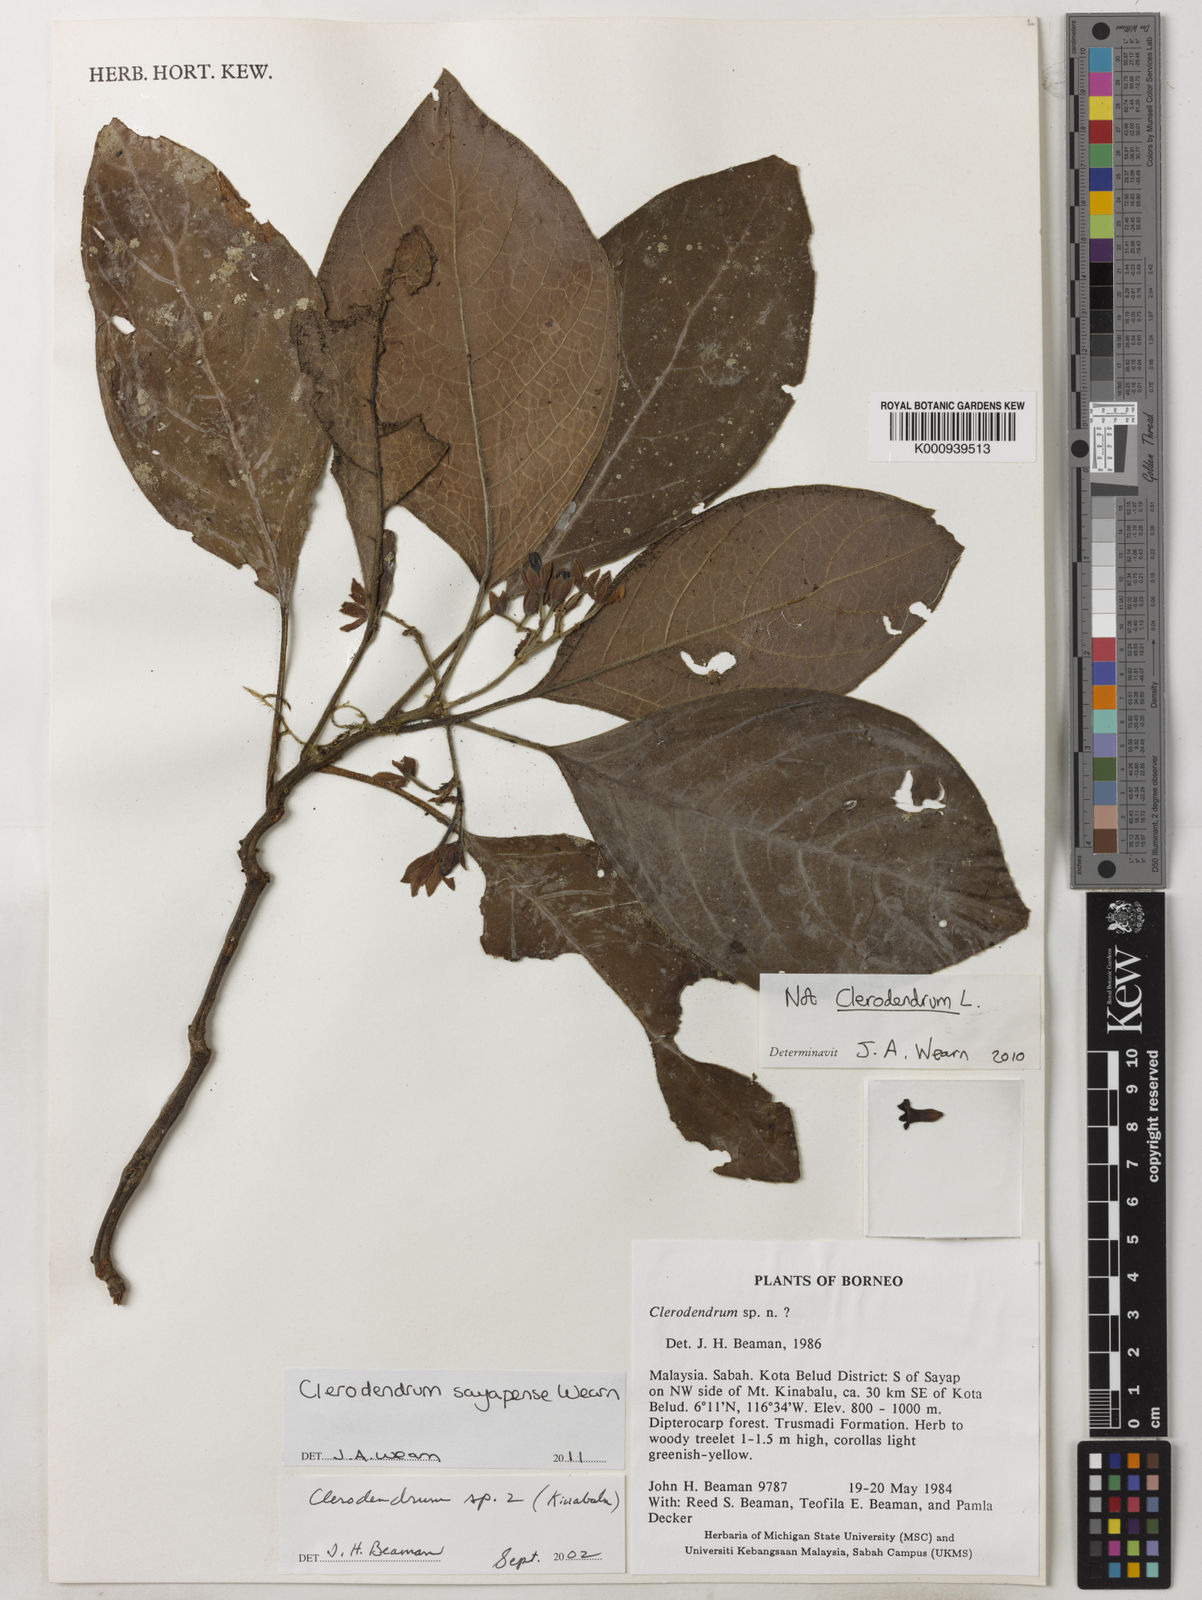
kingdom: Plantae
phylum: Tracheophyta
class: Magnoliopsida
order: Lamiales
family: Lamiaceae
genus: Clerodendrum
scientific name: Clerodendrum sayapense
